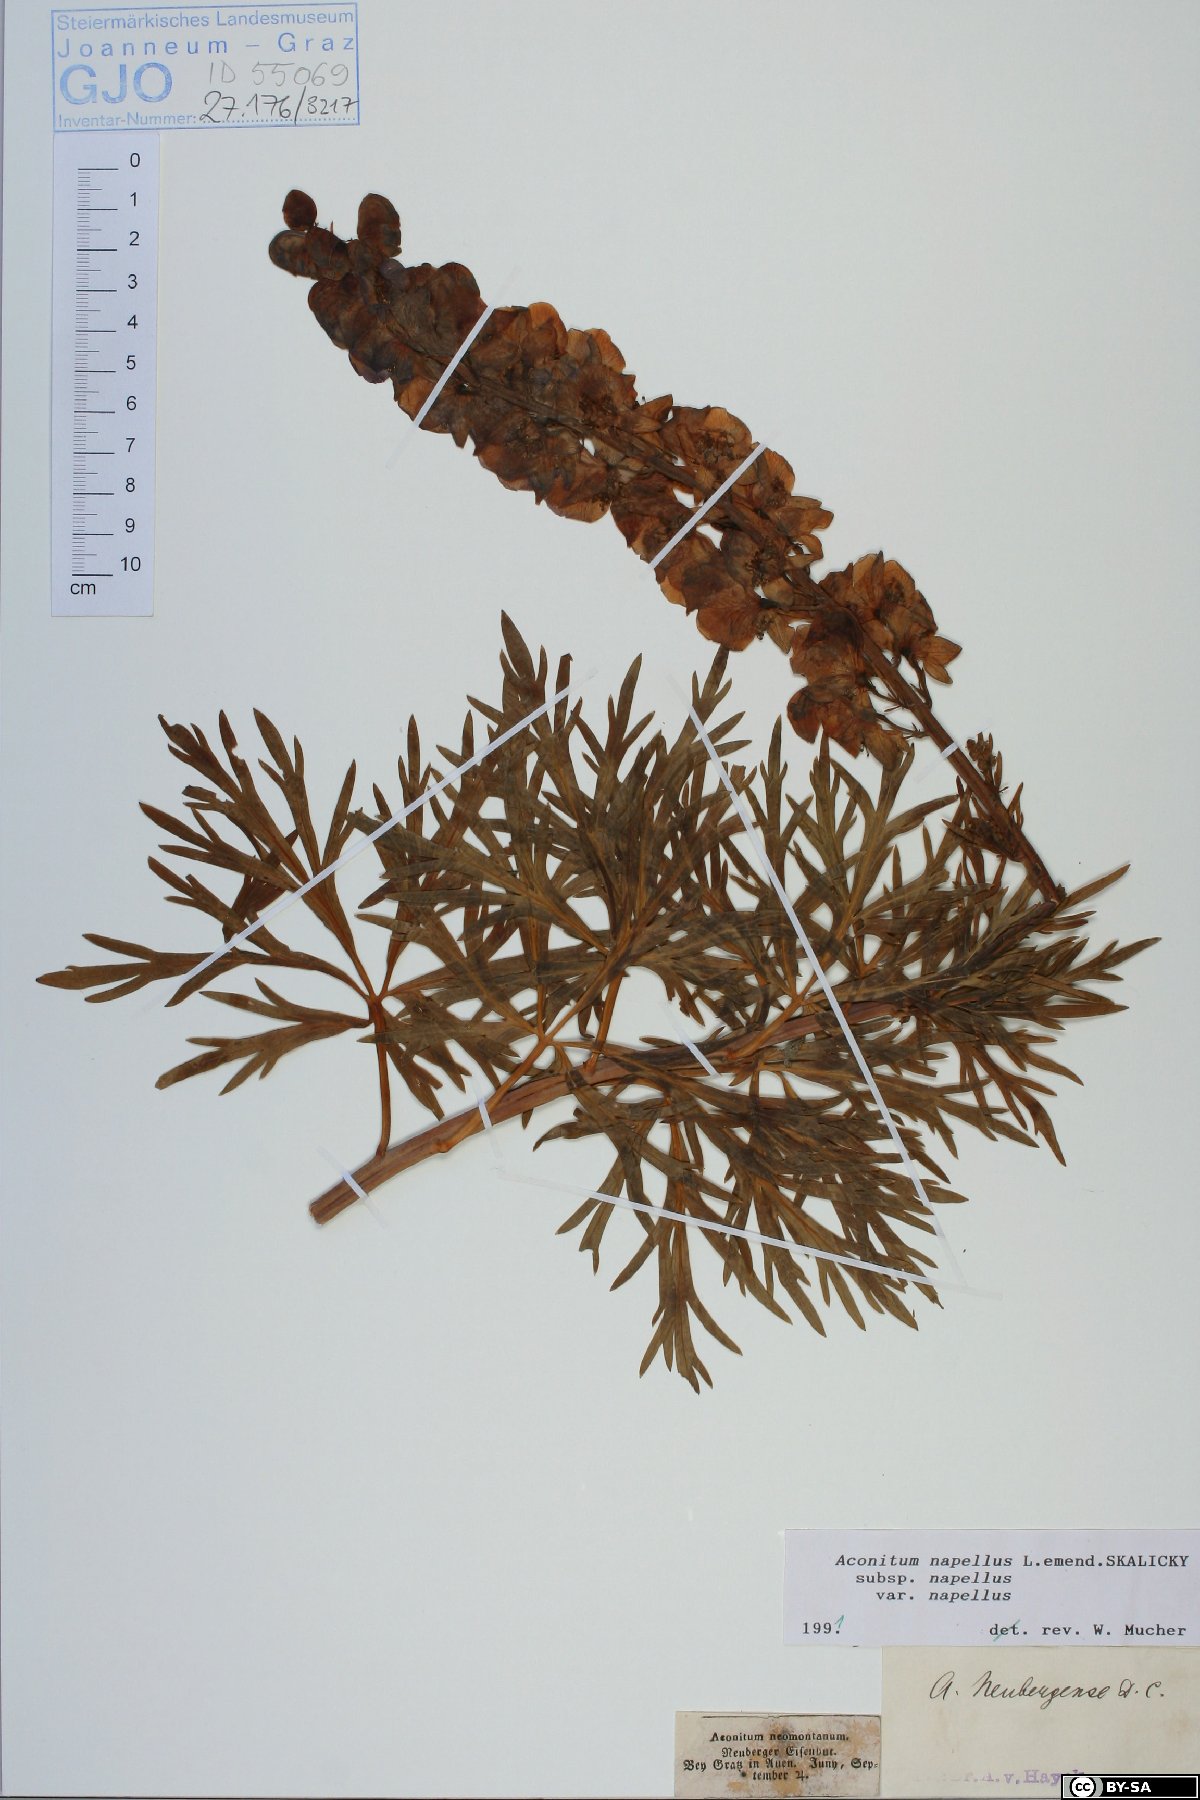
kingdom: Plantae
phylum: Tracheophyta
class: Magnoliopsida
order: Ranunculales
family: Ranunculaceae
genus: Aconitum
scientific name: Aconitum napellus
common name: Garden monkshood
